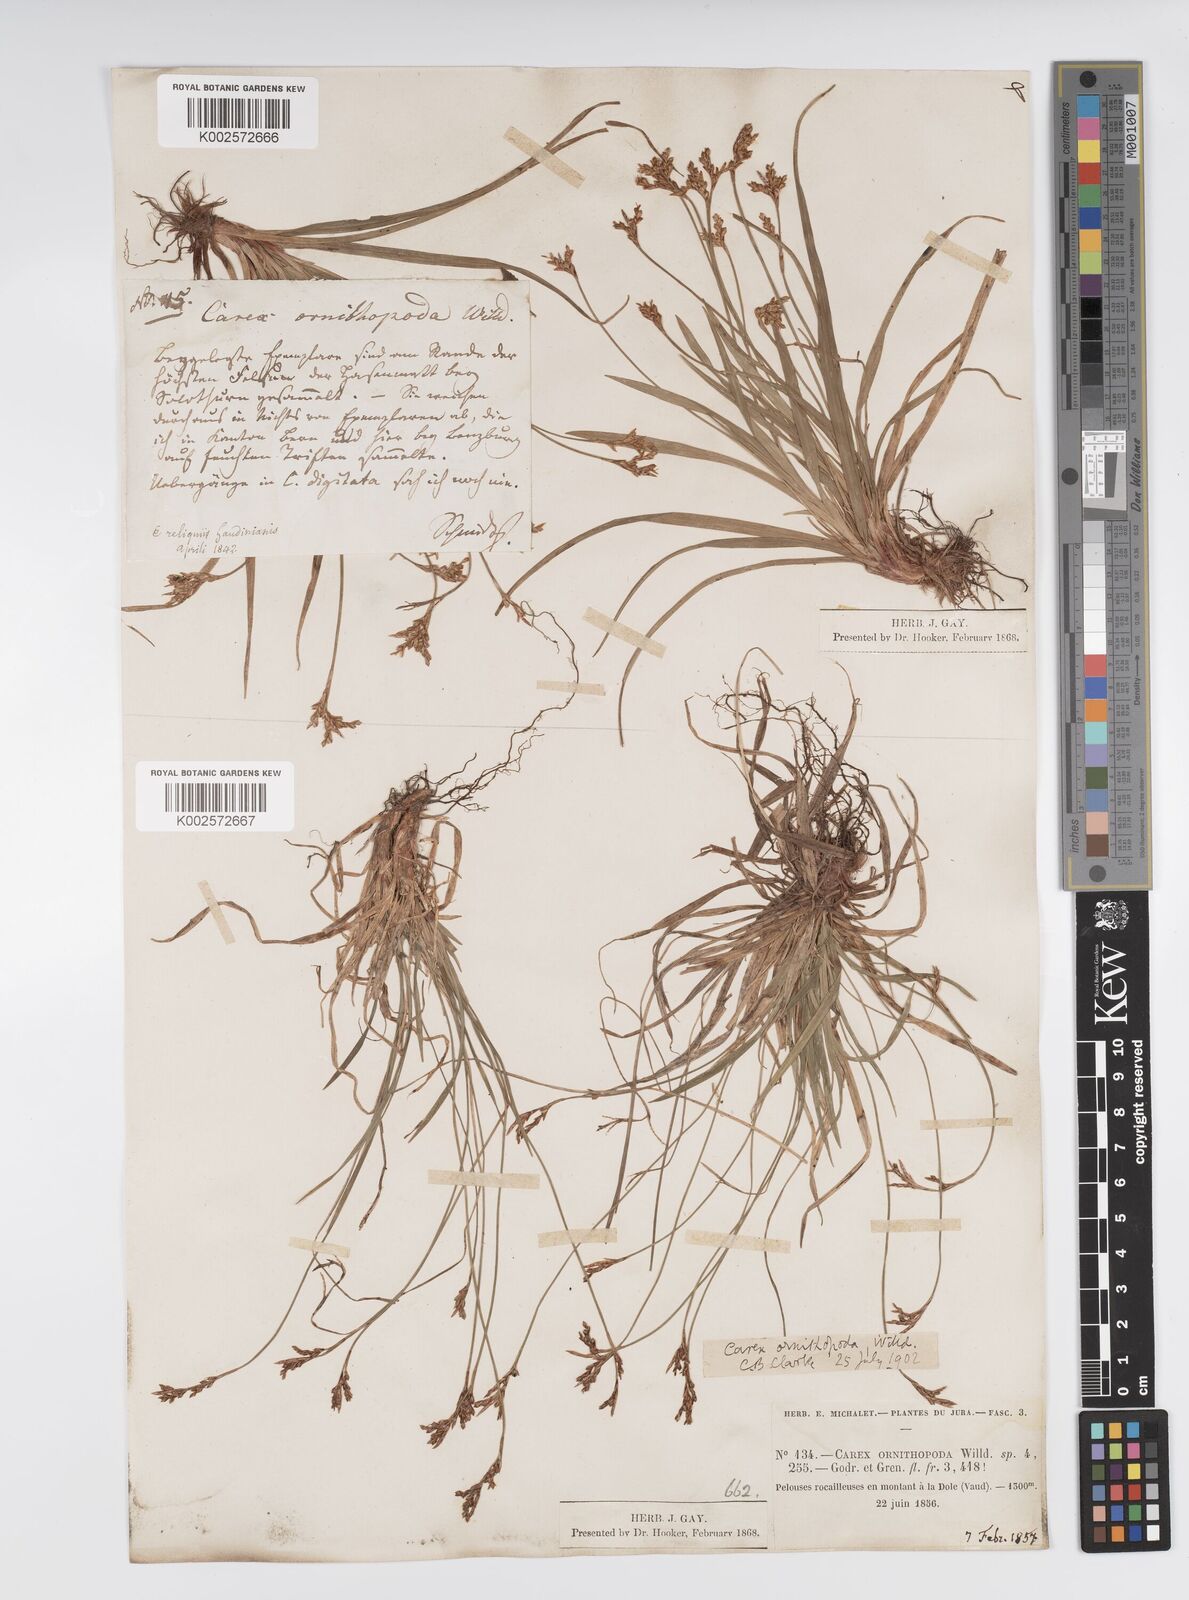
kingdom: Plantae
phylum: Tracheophyta
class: Liliopsida
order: Poales
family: Cyperaceae
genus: Carex
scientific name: Carex ornithopoda
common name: Bird's-foot sedge
